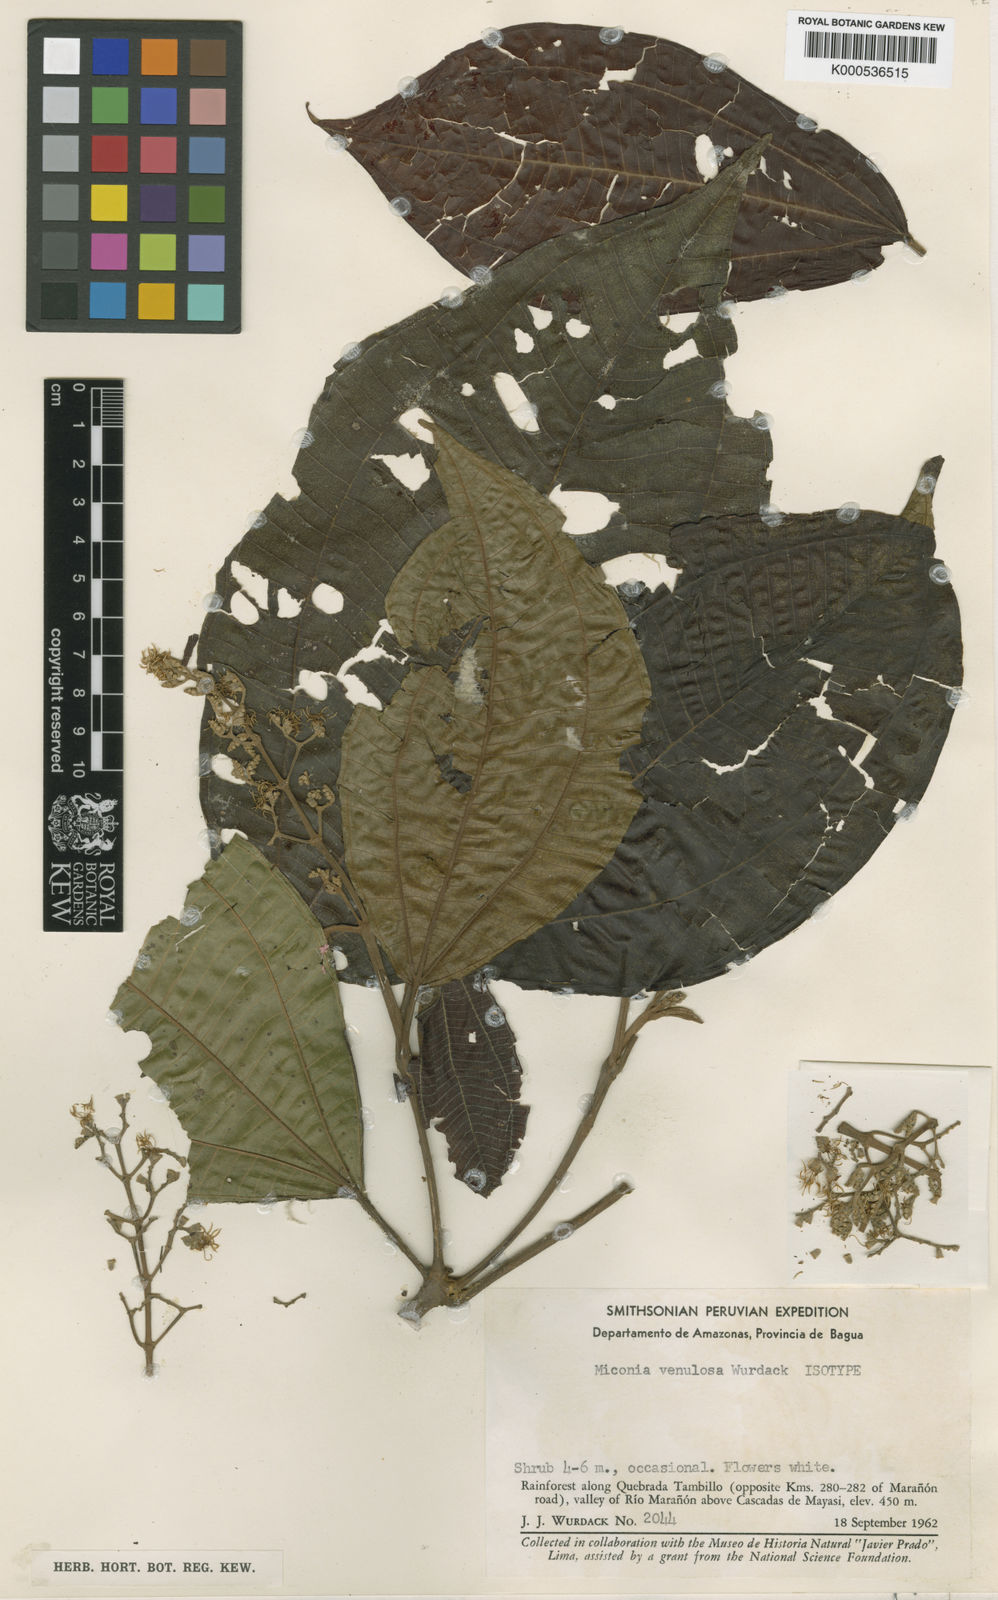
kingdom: Plantae
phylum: Tracheophyta
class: Magnoliopsida
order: Myrtales
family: Melastomataceae
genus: Miconia
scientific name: Miconia venulosa
